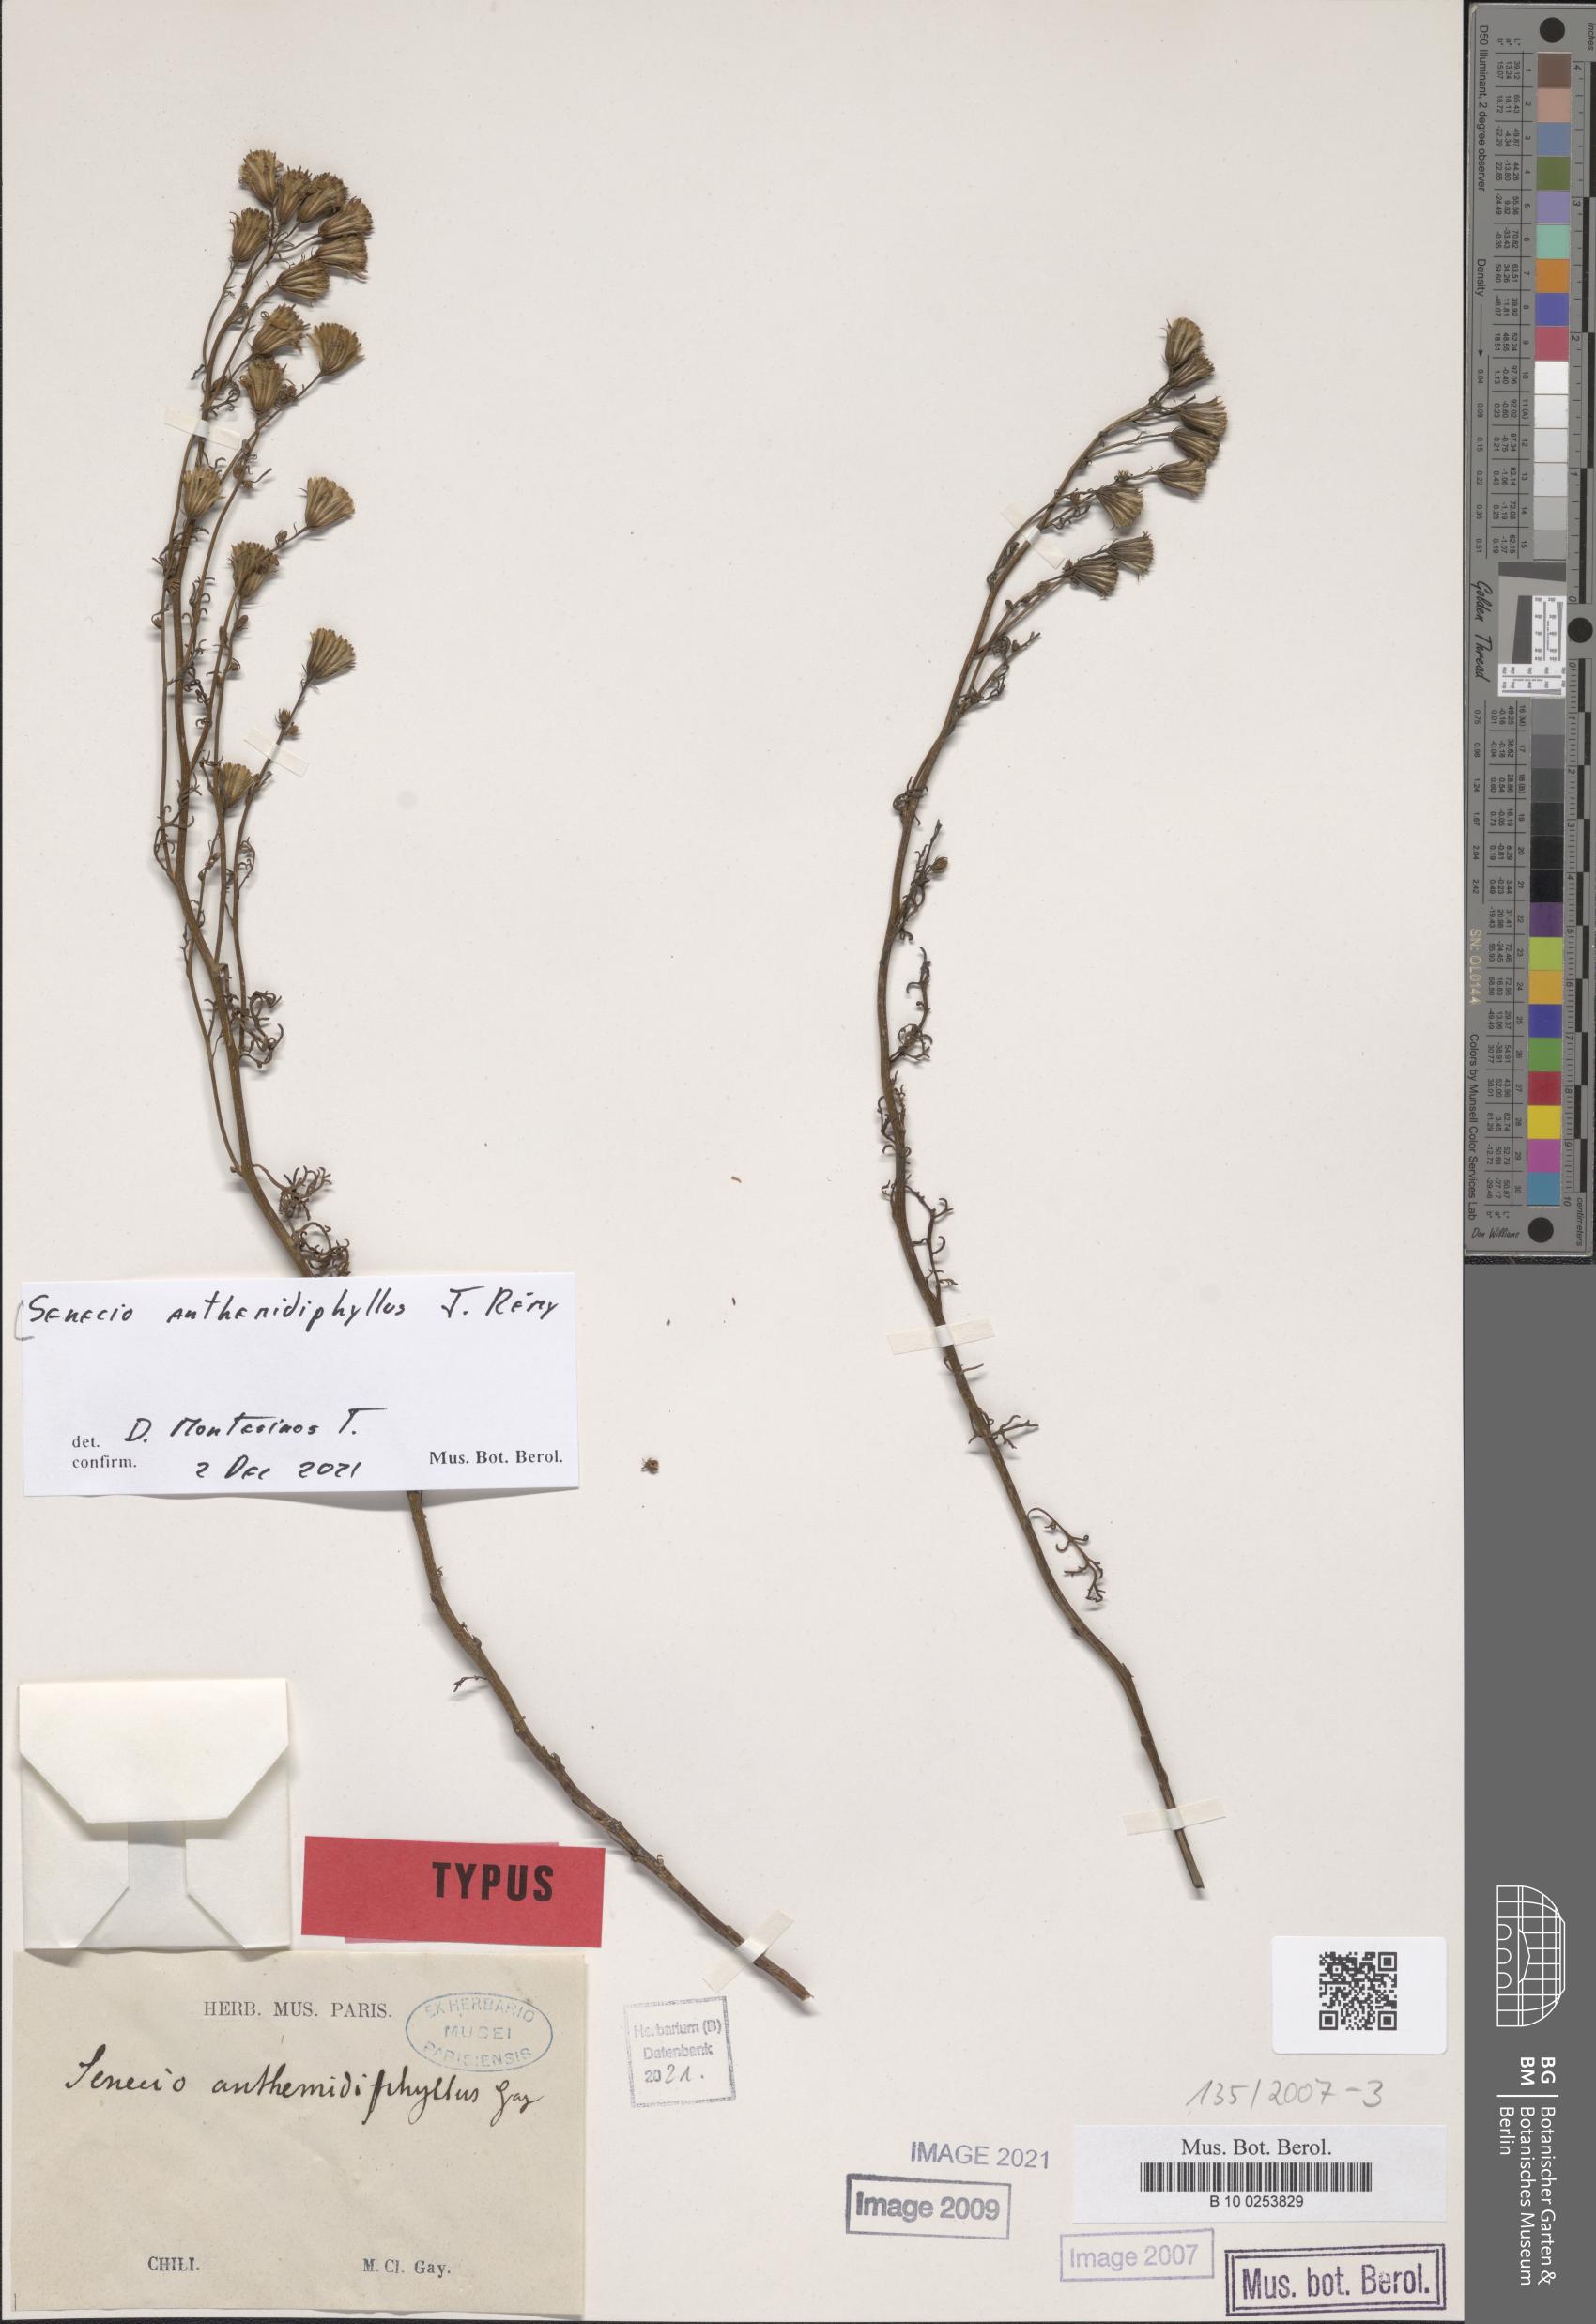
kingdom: Plantae
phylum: Tracheophyta
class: Magnoliopsida
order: Asterales
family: Asteraceae
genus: Senecio
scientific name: Senecio anthemidiphyllus
